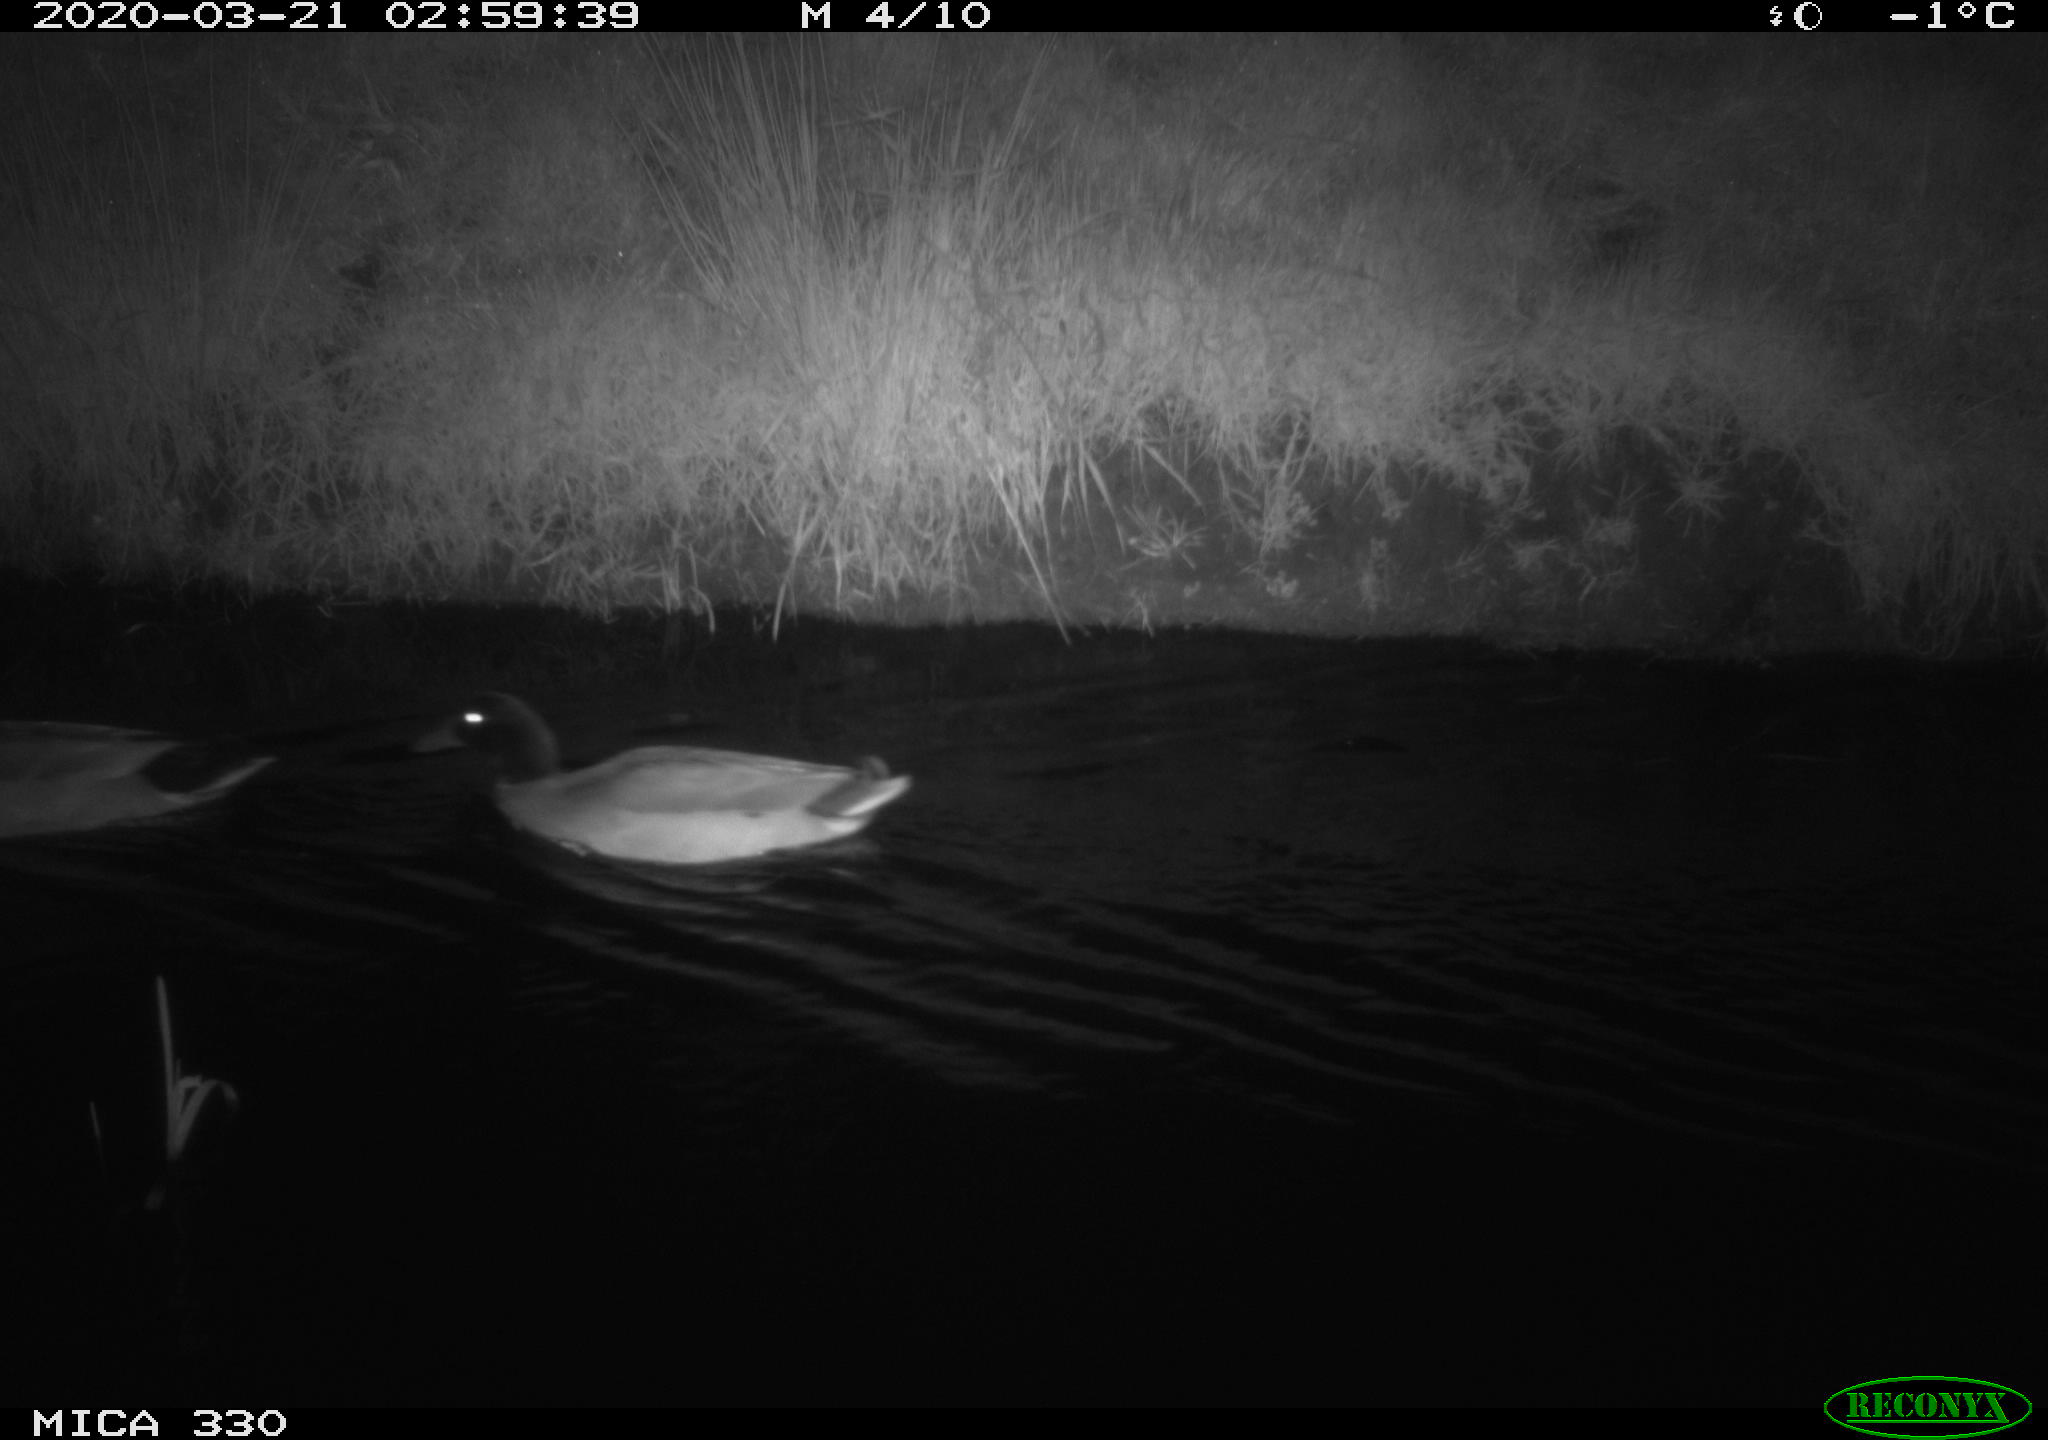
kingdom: Animalia
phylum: Chordata
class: Aves
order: Anseriformes
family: Anatidae
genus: Anas
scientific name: Anas platyrhynchos
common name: Mallard
